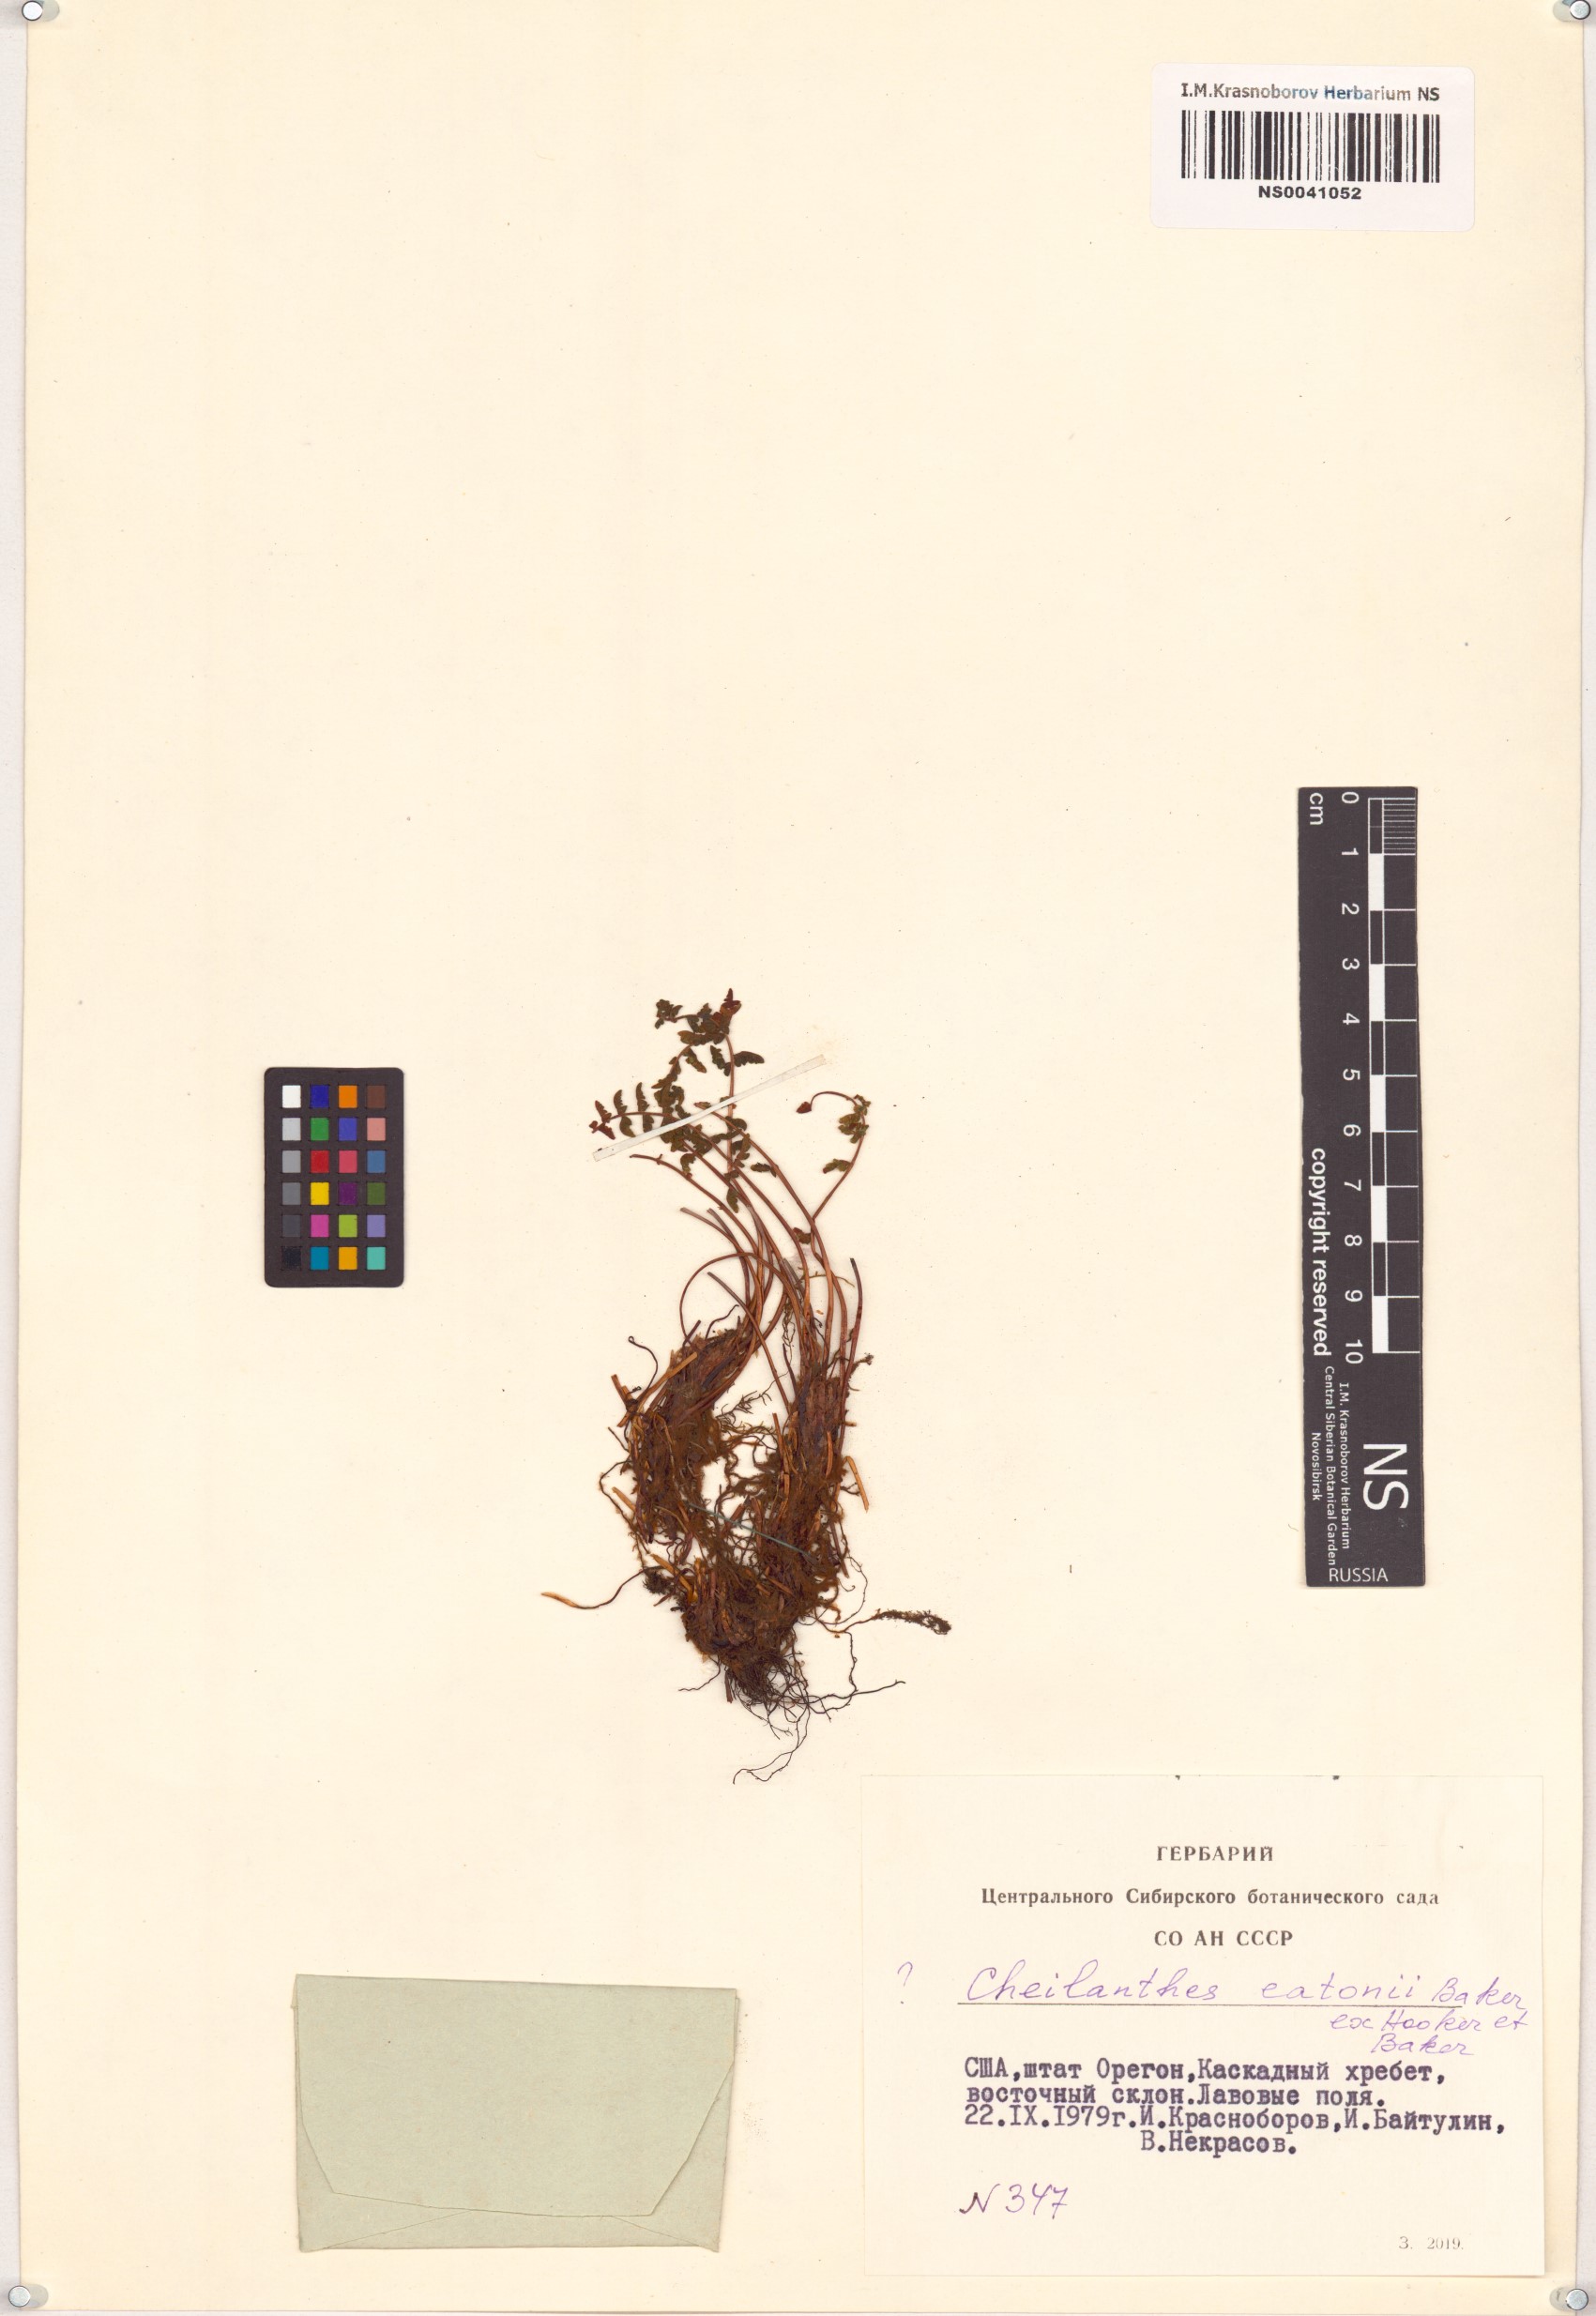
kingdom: Plantae
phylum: Tracheophyta
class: Polypodiopsida
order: Polypodiales
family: Pteridaceae
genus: Myriopteris
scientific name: Myriopteris rufa
